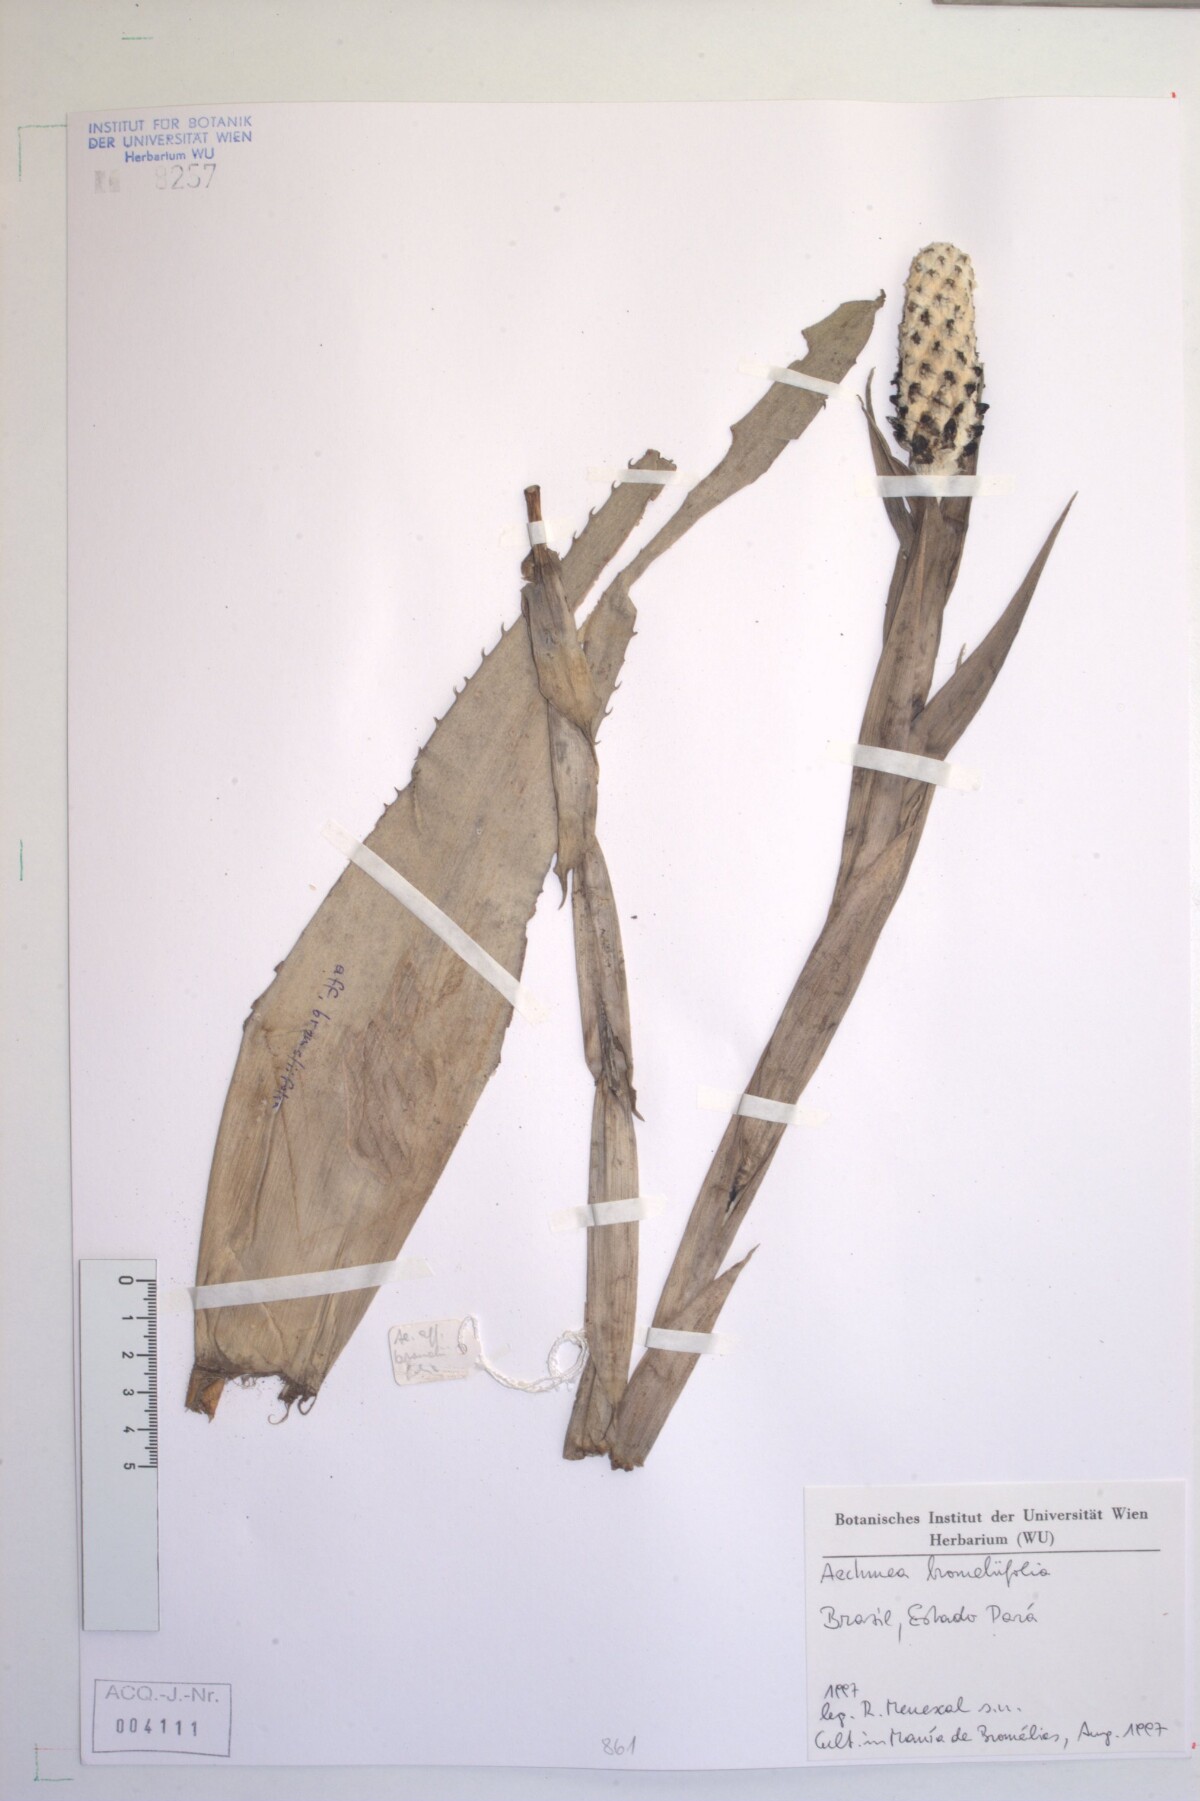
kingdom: Plantae
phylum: Tracheophyta
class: Liliopsida
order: Poales
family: Bromeliaceae
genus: Aechmea
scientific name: Aechmea bromeliifolia
